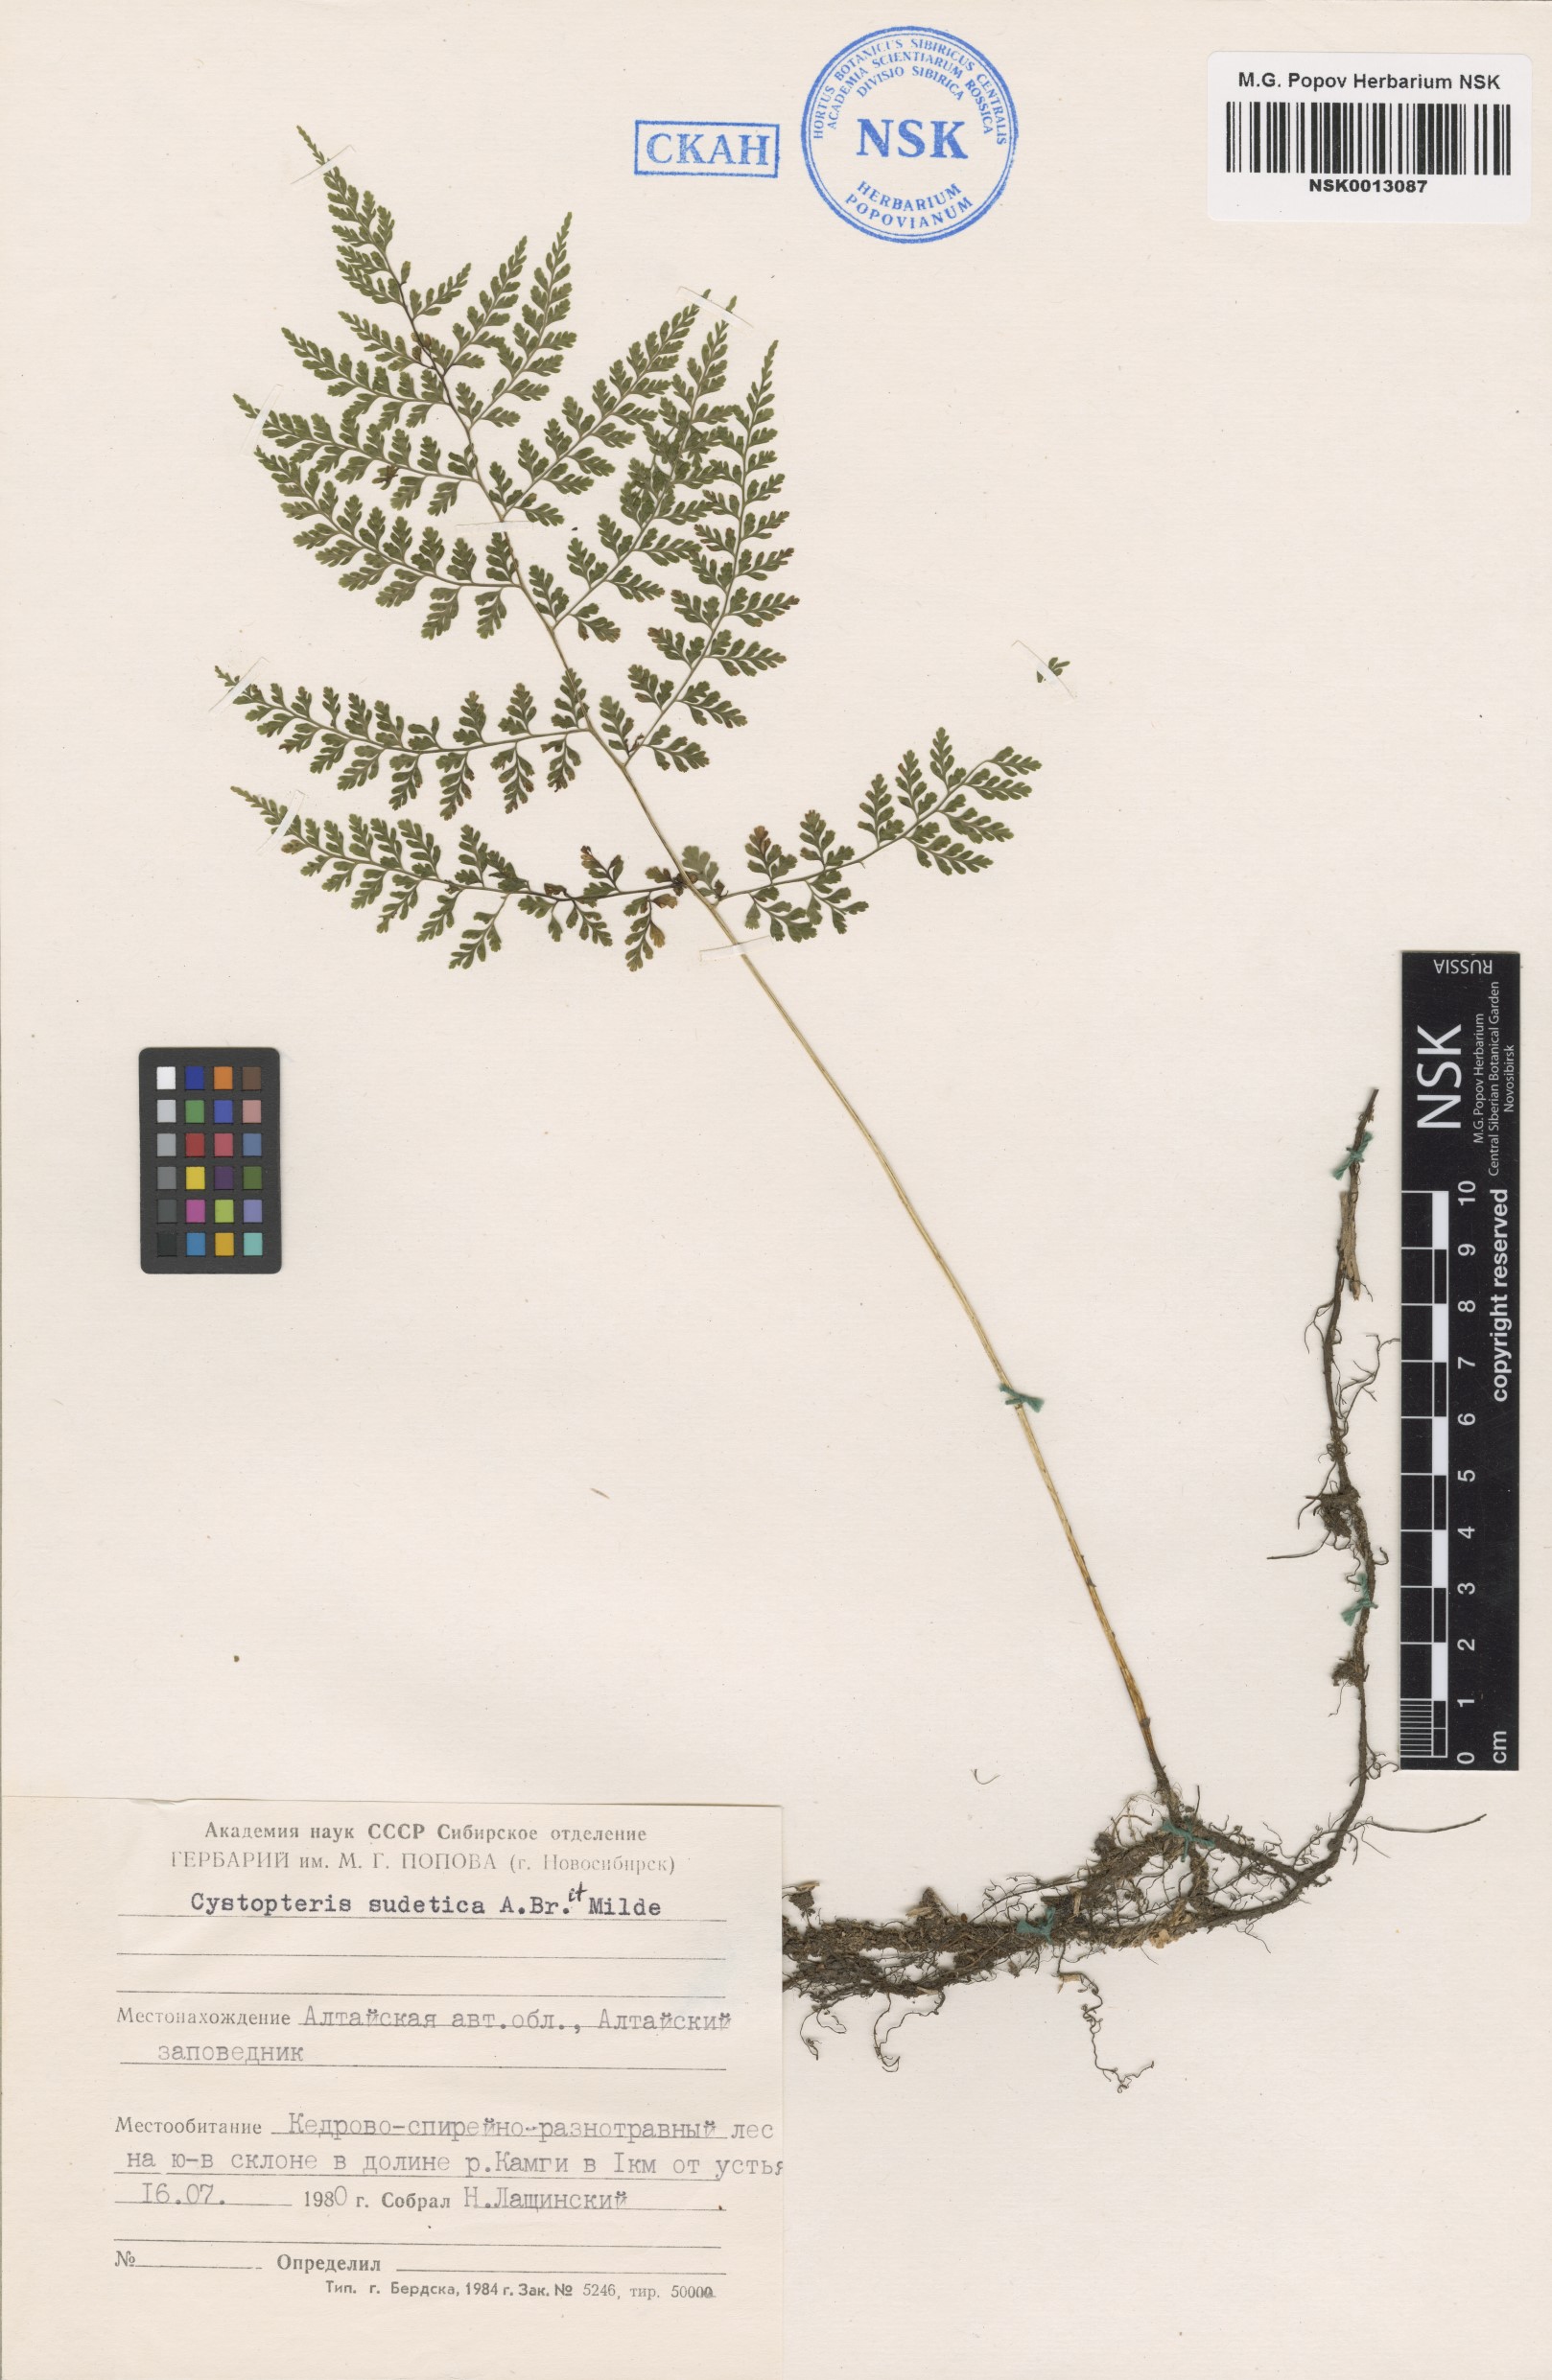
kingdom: Plantae
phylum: Tracheophyta
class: Polypodiopsida
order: Polypodiales
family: Cystopteridaceae
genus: Cystopteris
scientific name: Cystopteris sudetica
